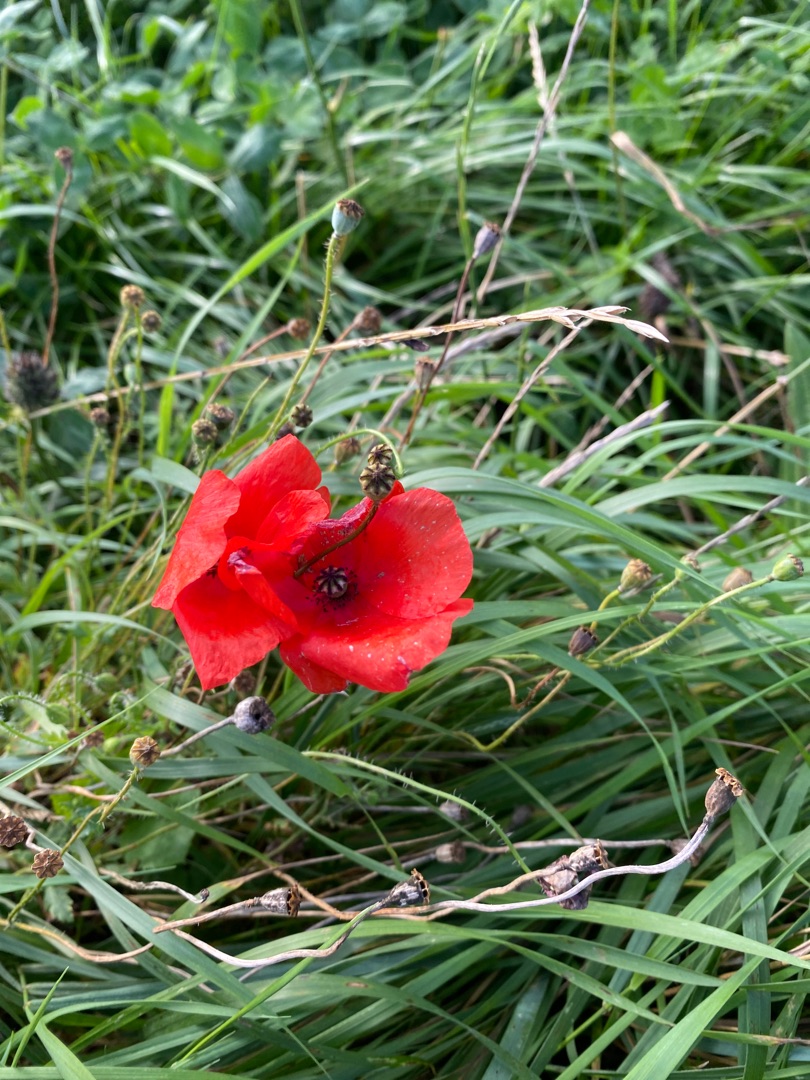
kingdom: Plantae
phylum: Tracheophyta
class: Magnoliopsida
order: Ranunculales
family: Papaveraceae
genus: Papaver
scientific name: Papaver rhoeas
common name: Korn-valmue
